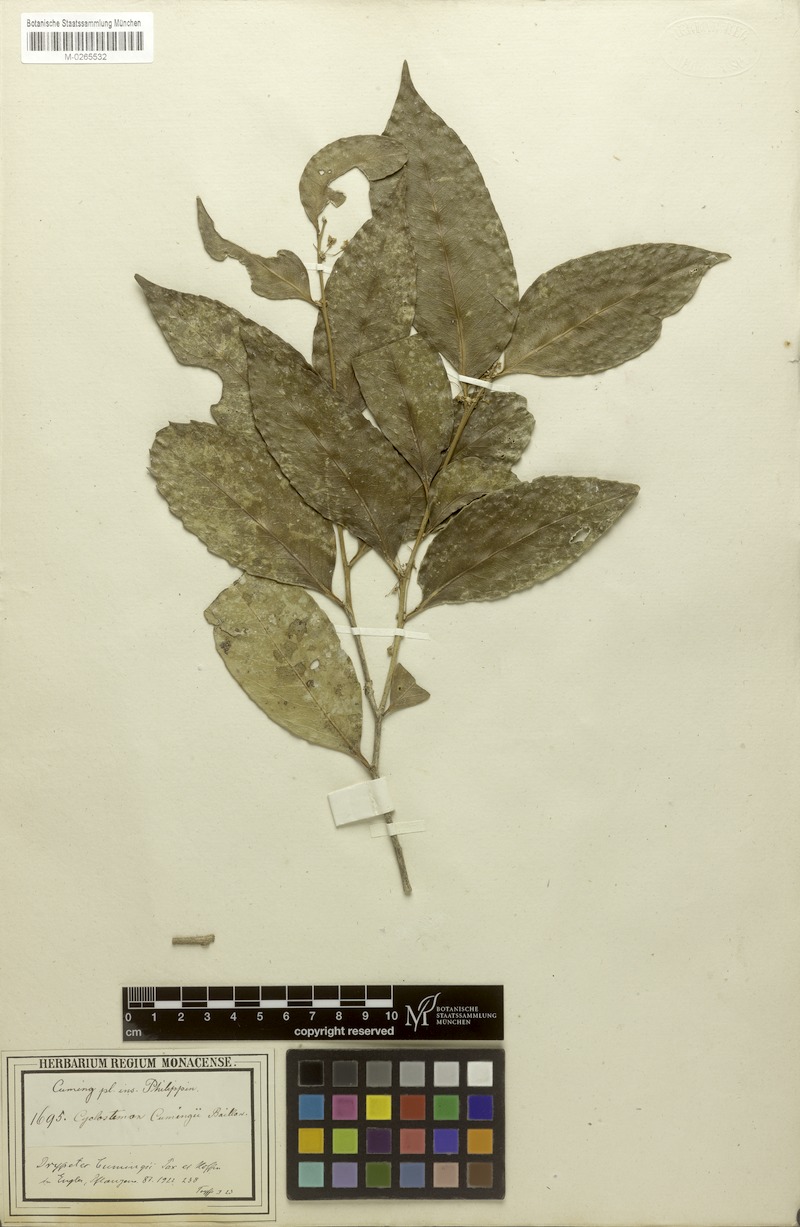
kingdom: Plantae
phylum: Tracheophyta
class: Magnoliopsida
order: Malpighiales
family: Putranjivaceae
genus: Drypetes
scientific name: Drypetes cumingii
